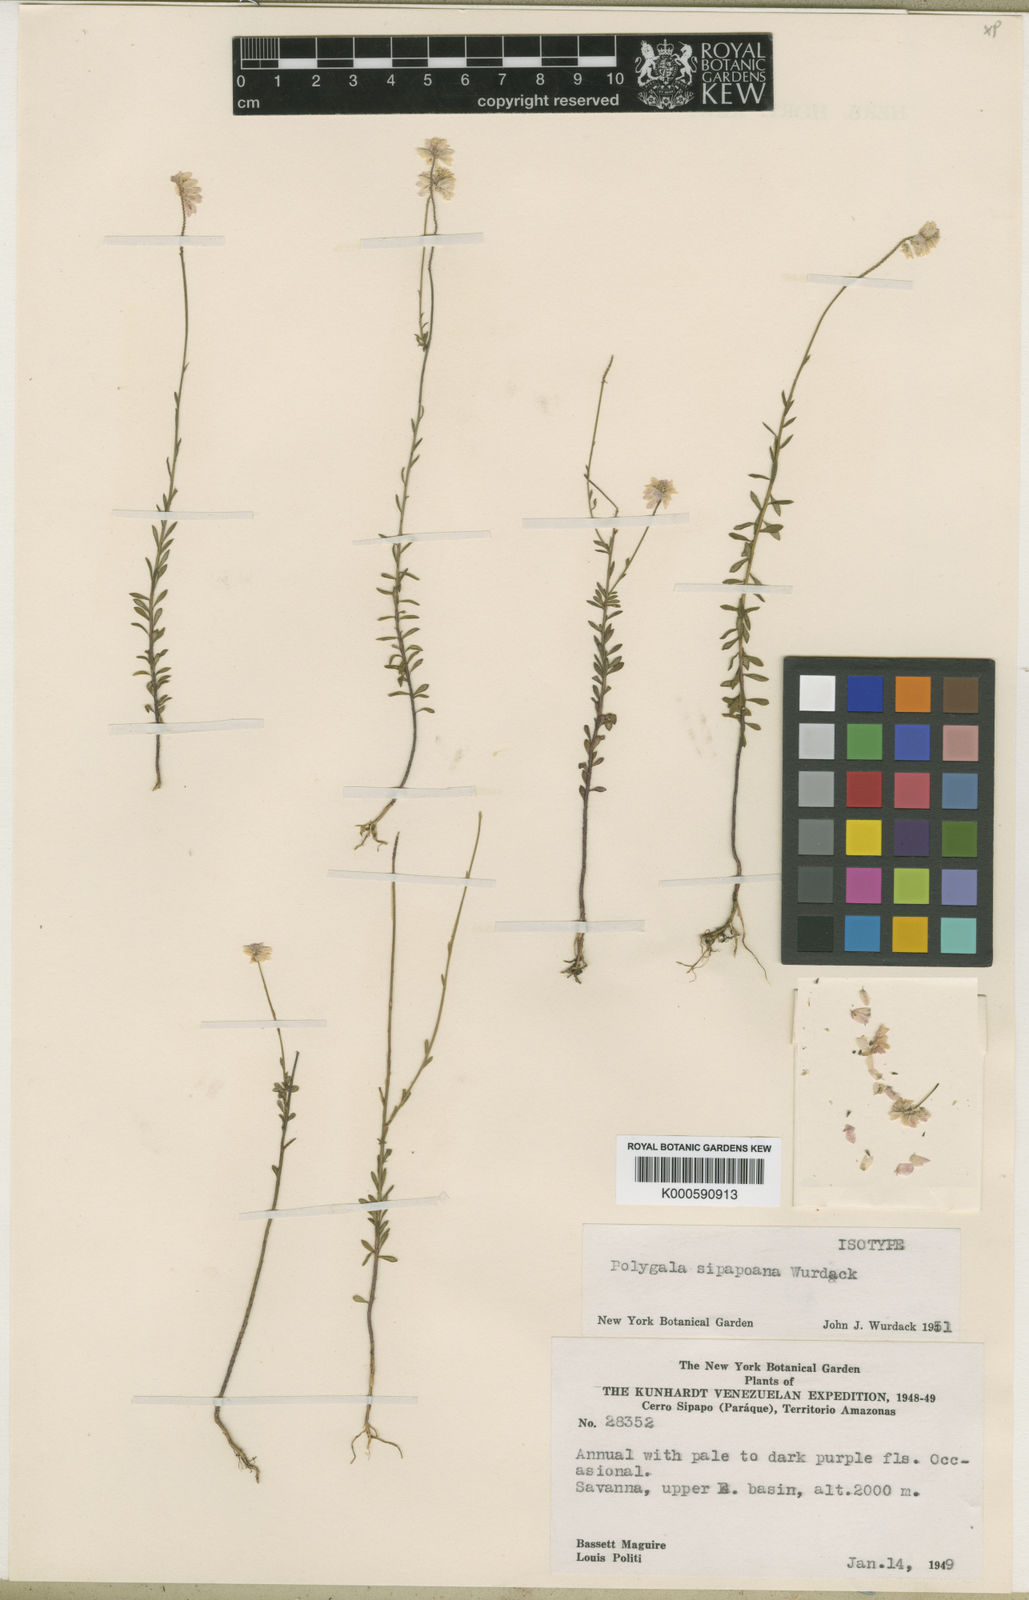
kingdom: Plantae
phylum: Tracheophyta
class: Magnoliopsida
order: Fabales
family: Polygalaceae
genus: Polygala
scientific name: Polygala sipapoana
